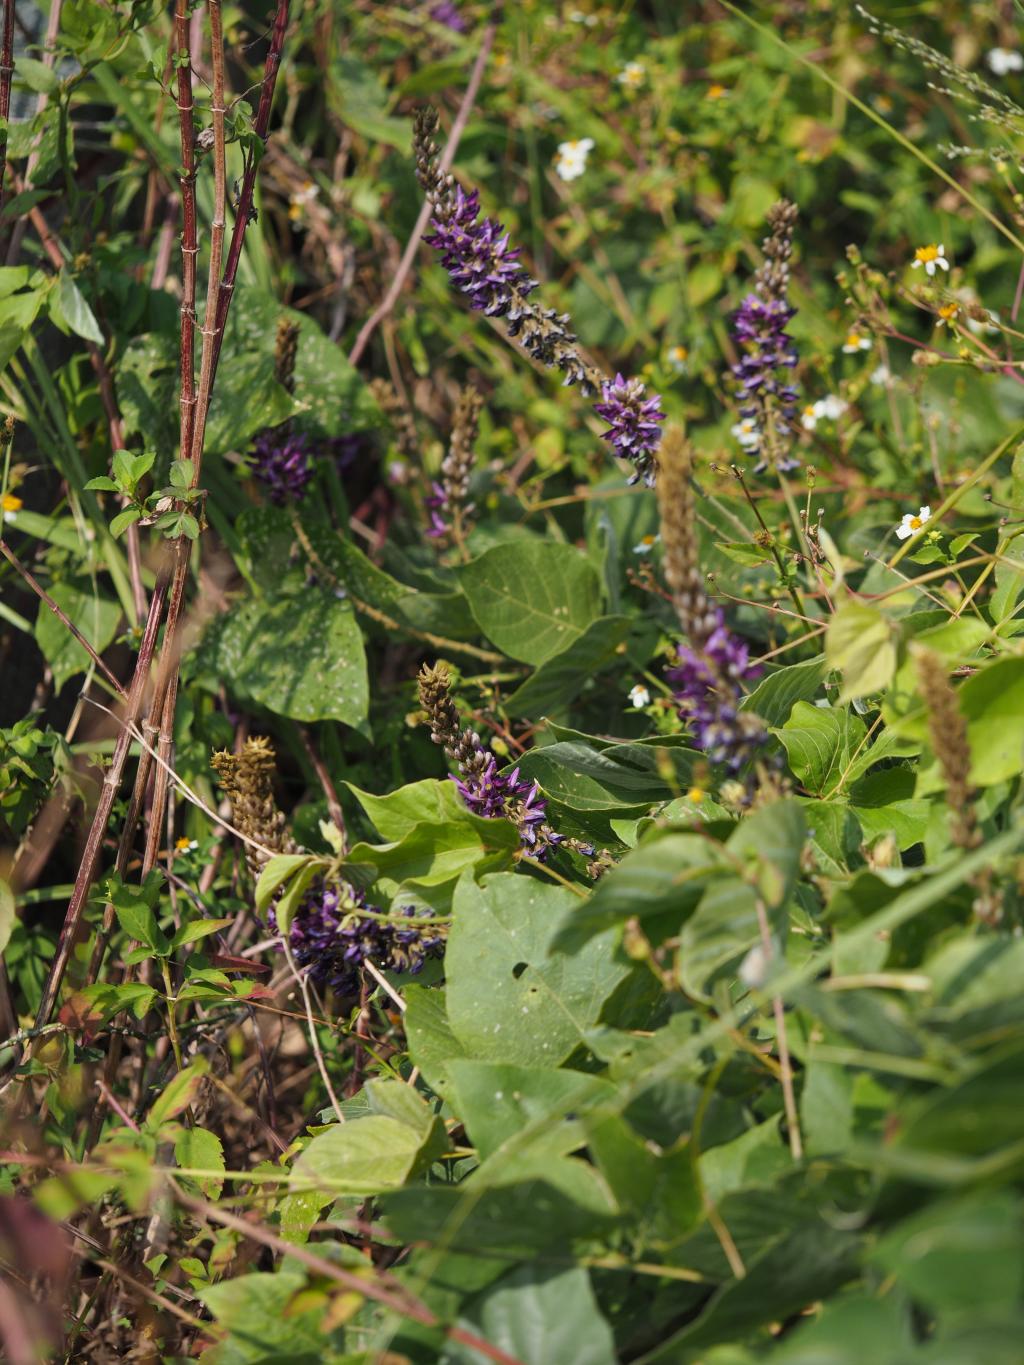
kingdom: Plantae
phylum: Tracheophyta
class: Magnoliopsida
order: Fabales
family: Fabaceae
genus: Pueraria
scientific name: Pueraria montana
